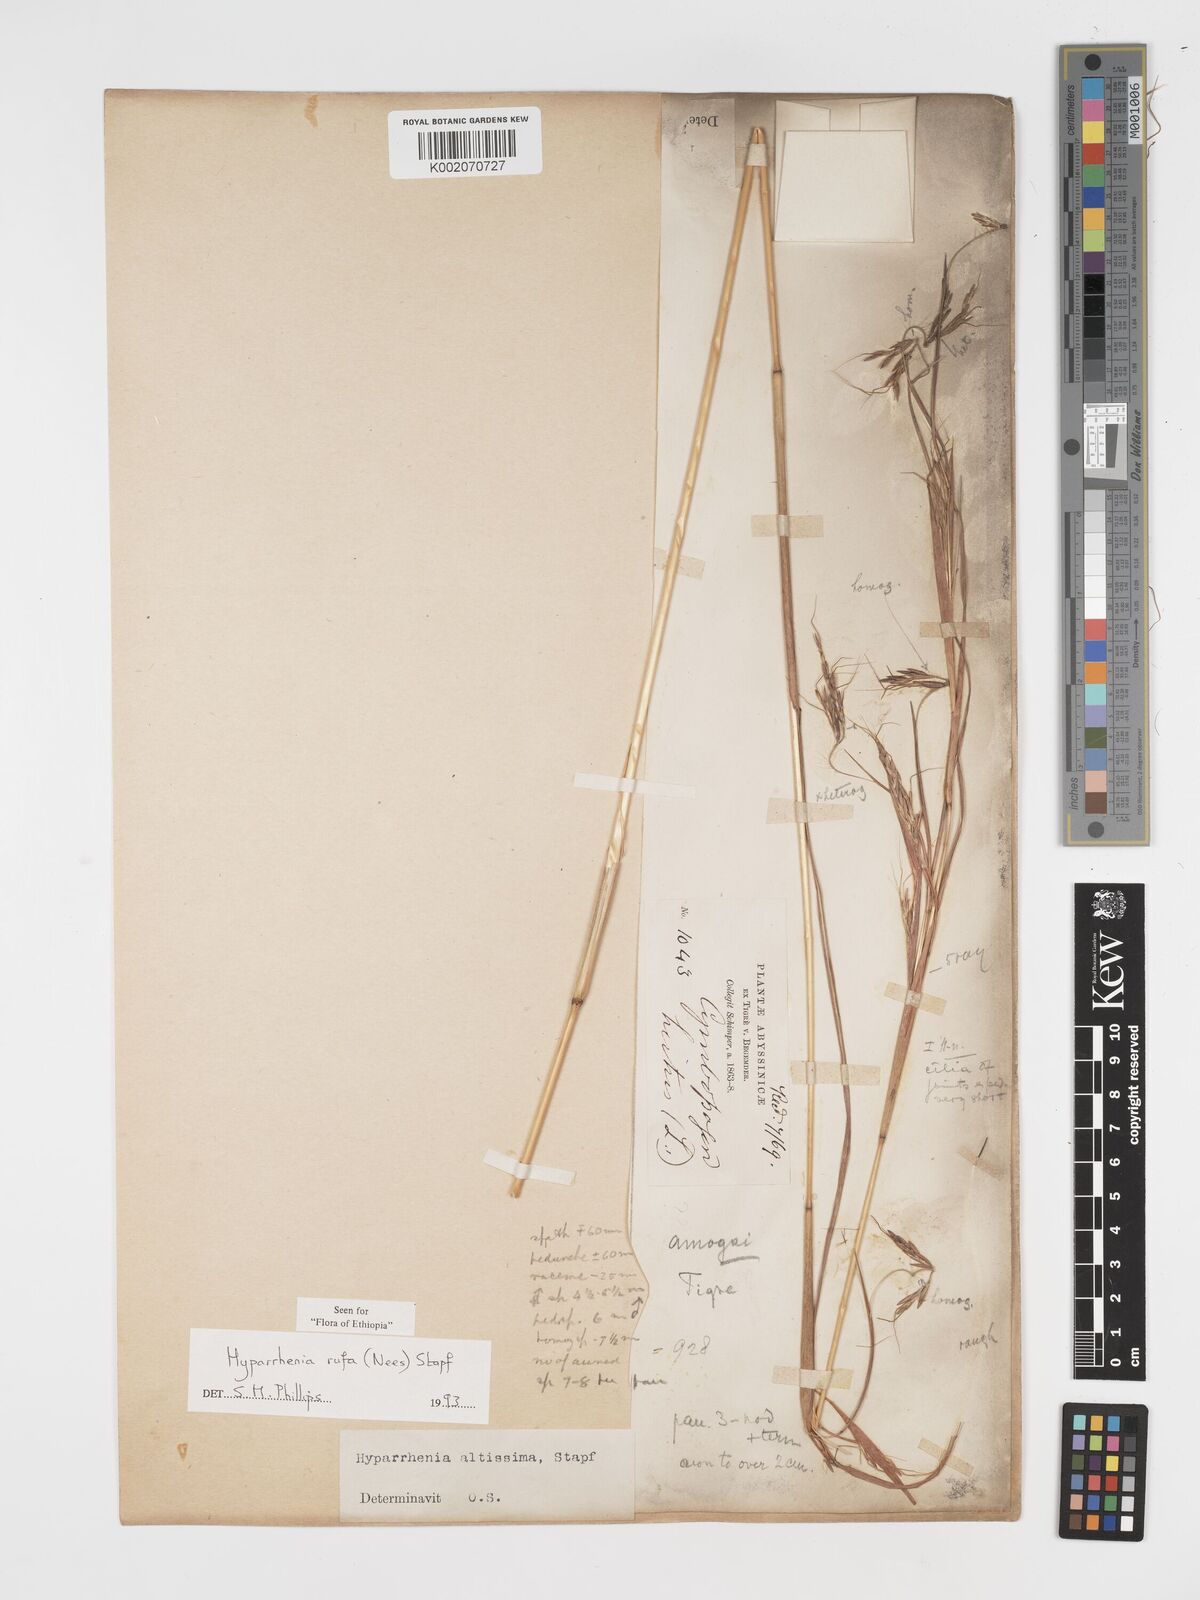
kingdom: Plantae
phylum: Tracheophyta
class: Liliopsida
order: Poales
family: Poaceae
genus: Hyparrhenia
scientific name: Hyparrhenia rufa
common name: Jaraguagrass
